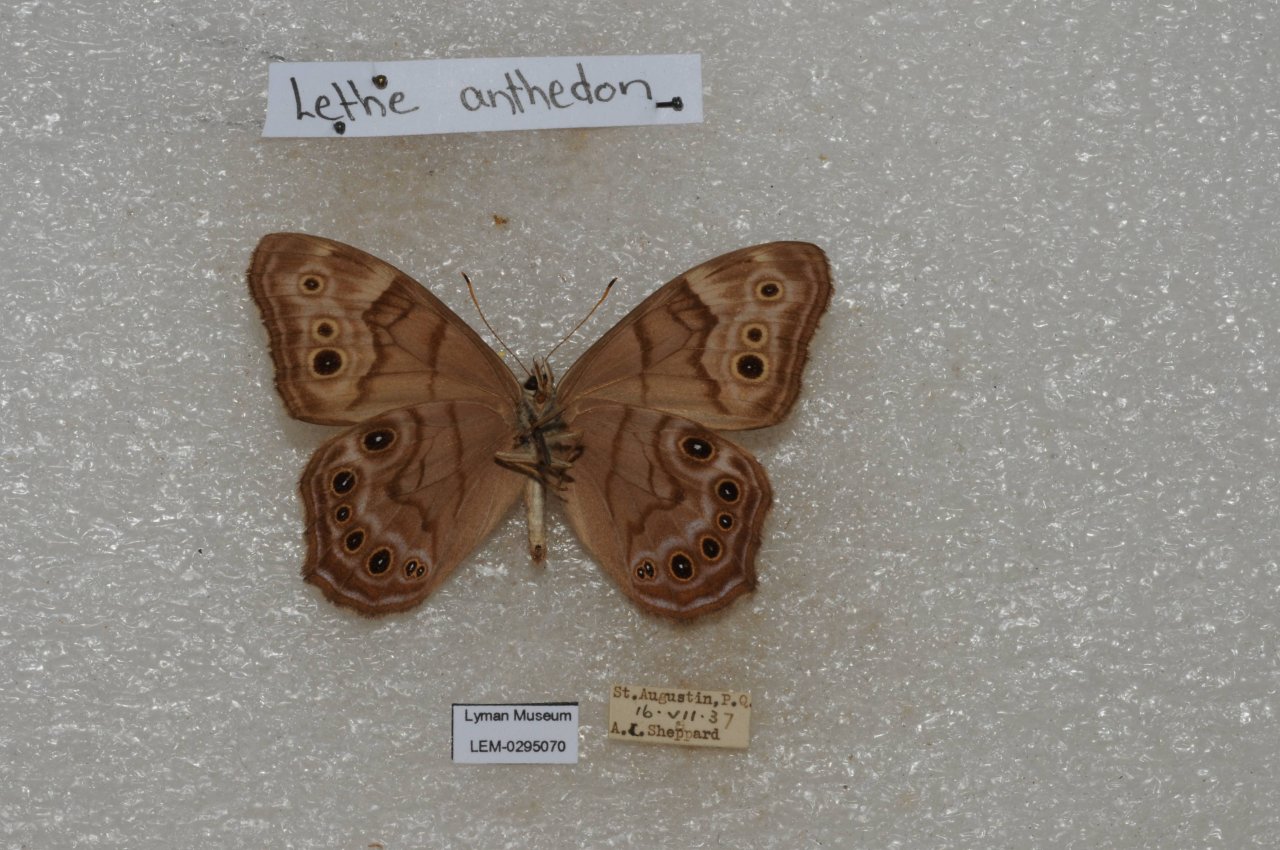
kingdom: Animalia
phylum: Arthropoda
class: Insecta
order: Lepidoptera
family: Nymphalidae
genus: Lethe
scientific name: Lethe anthedon
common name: Northern Pearly-Eye
